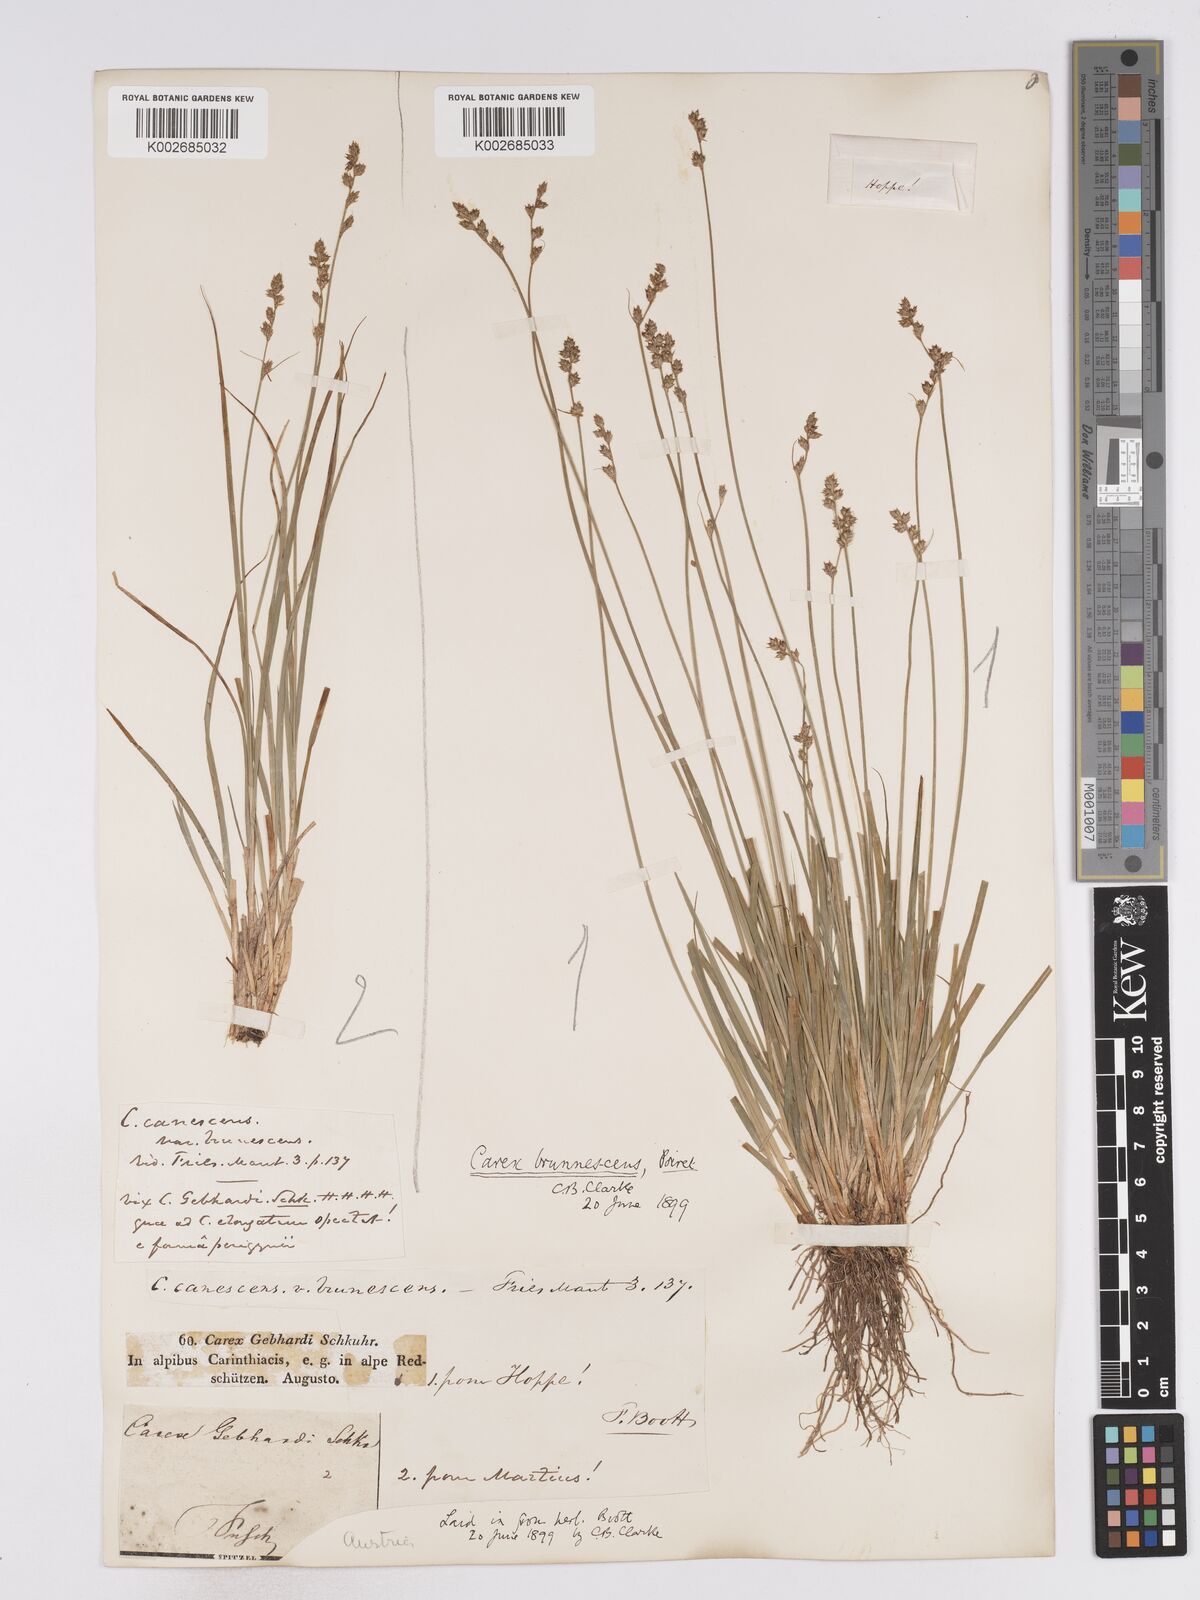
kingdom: Plantae
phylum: Tracheophyta
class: Liliopsida
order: Poales
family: Cyperaceae
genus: Carex
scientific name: Carex brunnescens
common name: Brown sedge
